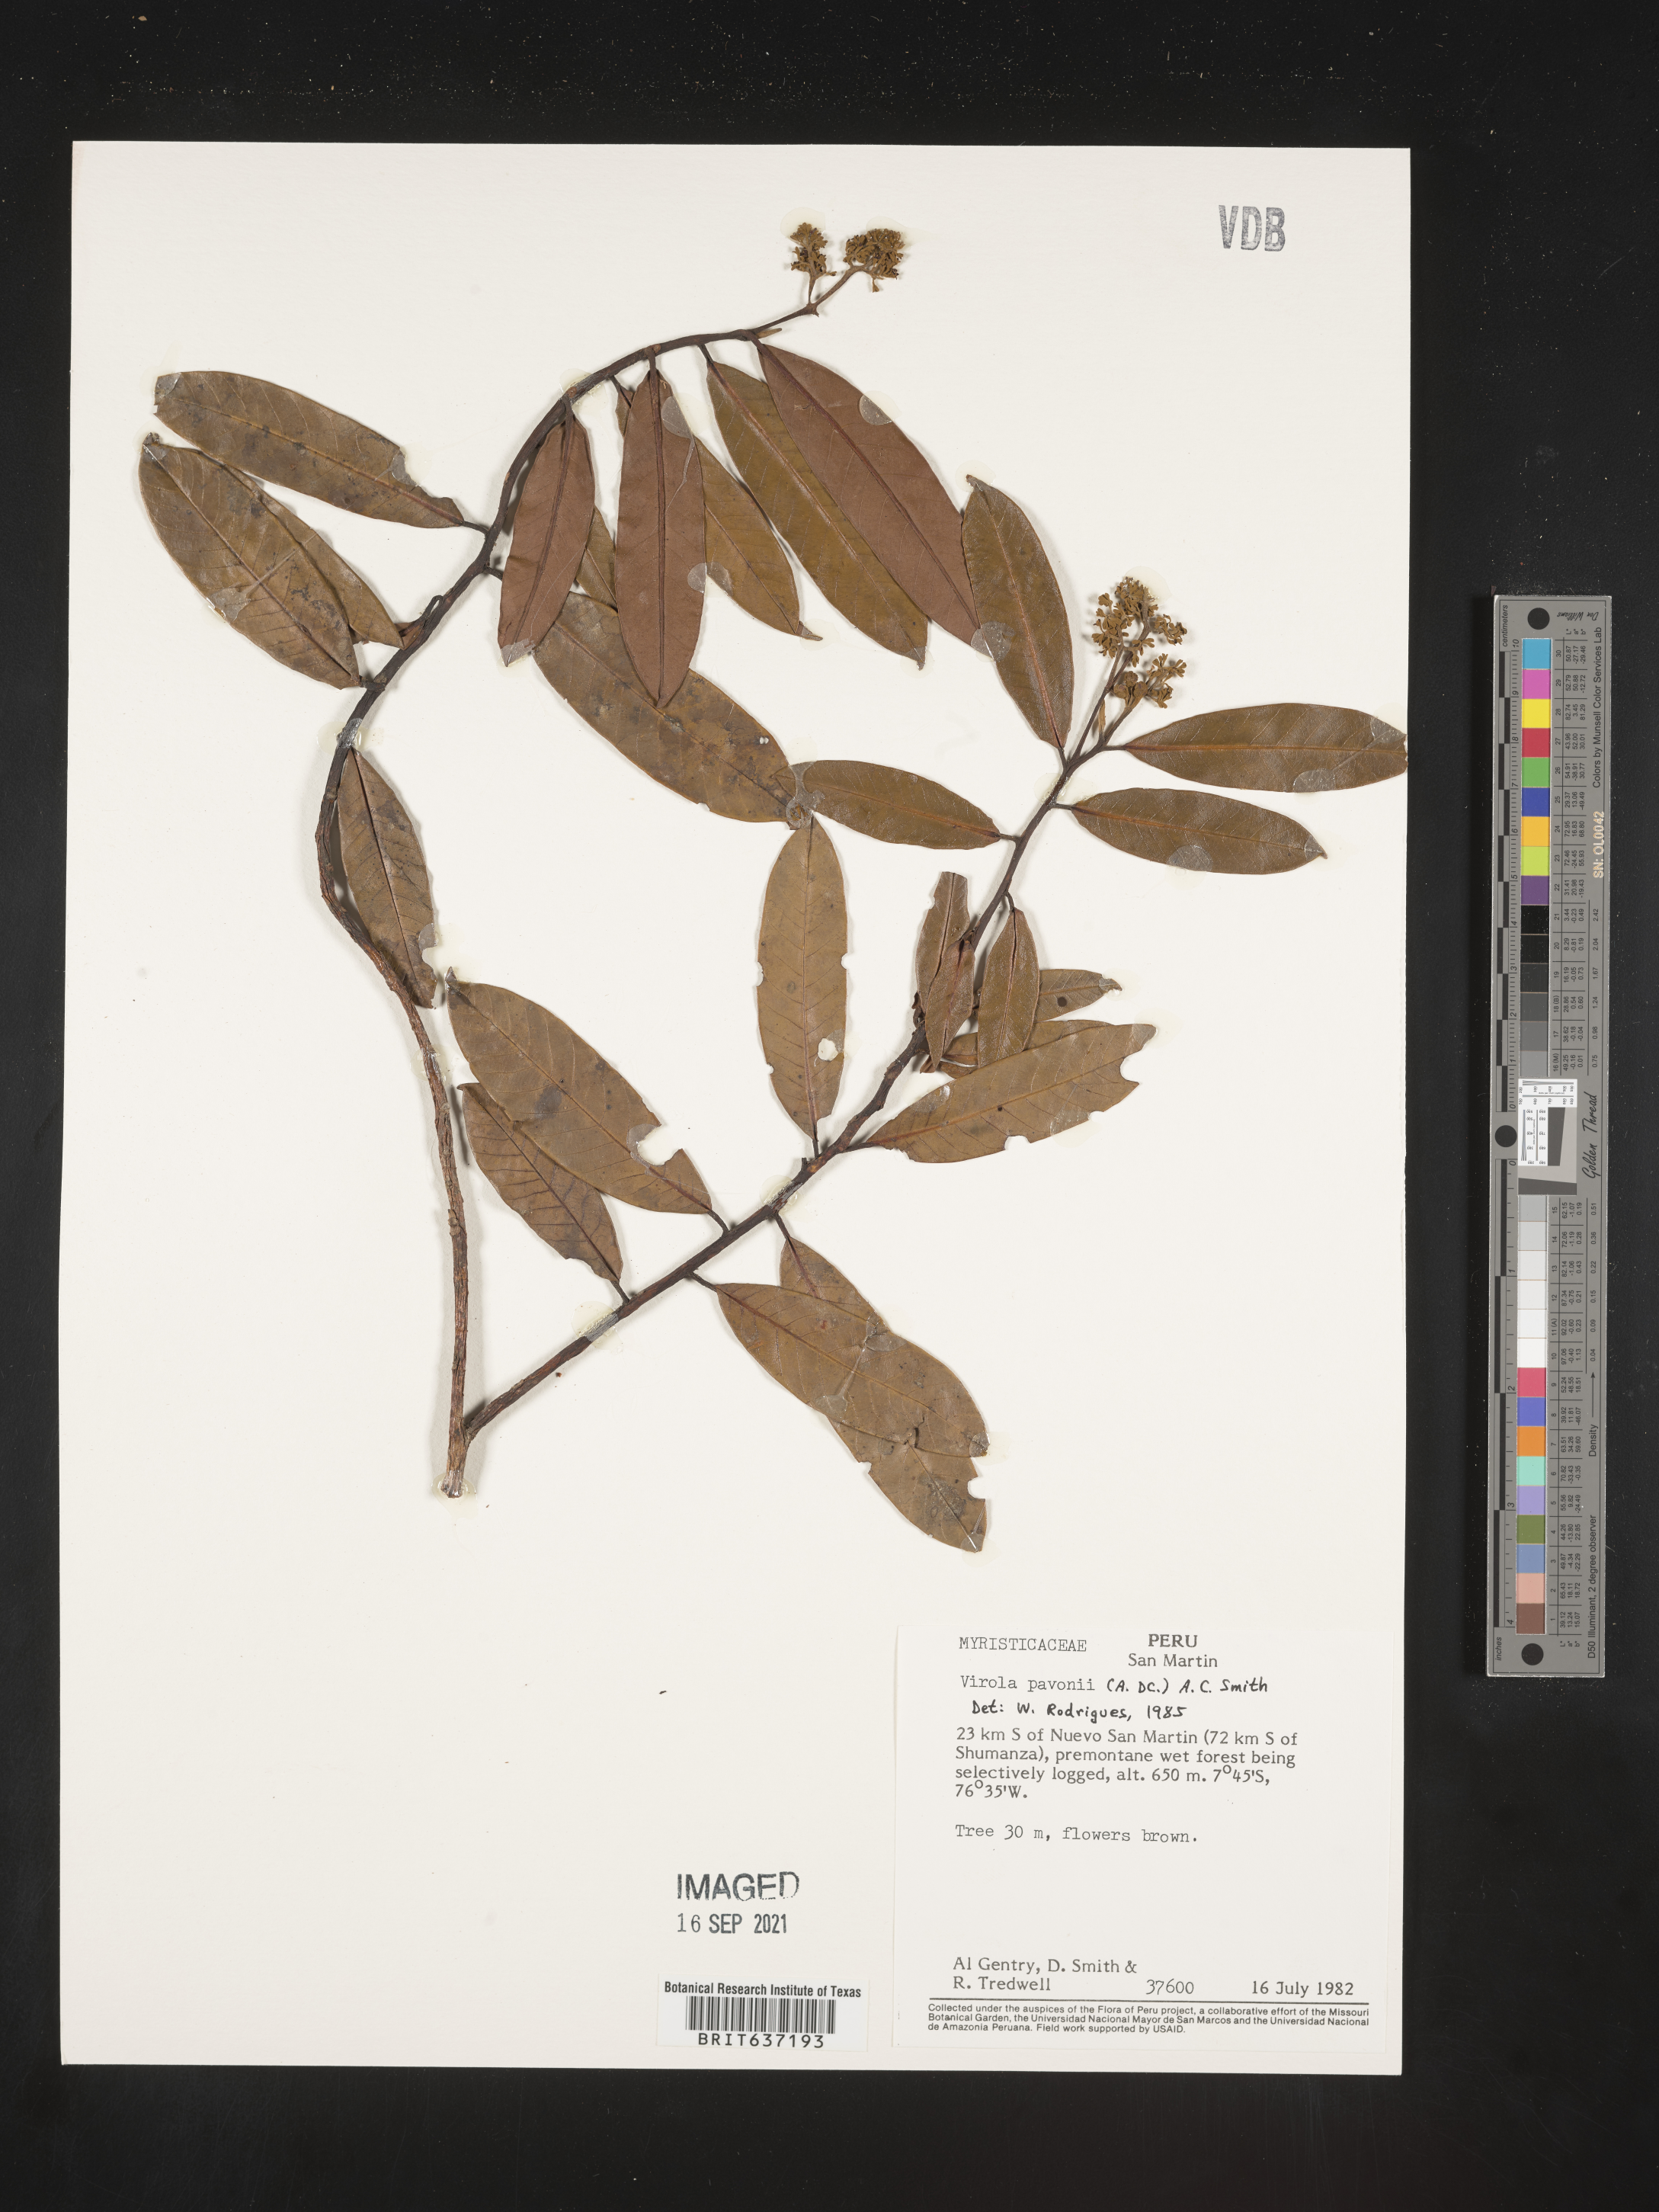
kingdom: Plantae
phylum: Tracheophyta
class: Magnoliopsida
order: Magnoliales
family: Myristicaceae
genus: Virola
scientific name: Virola
